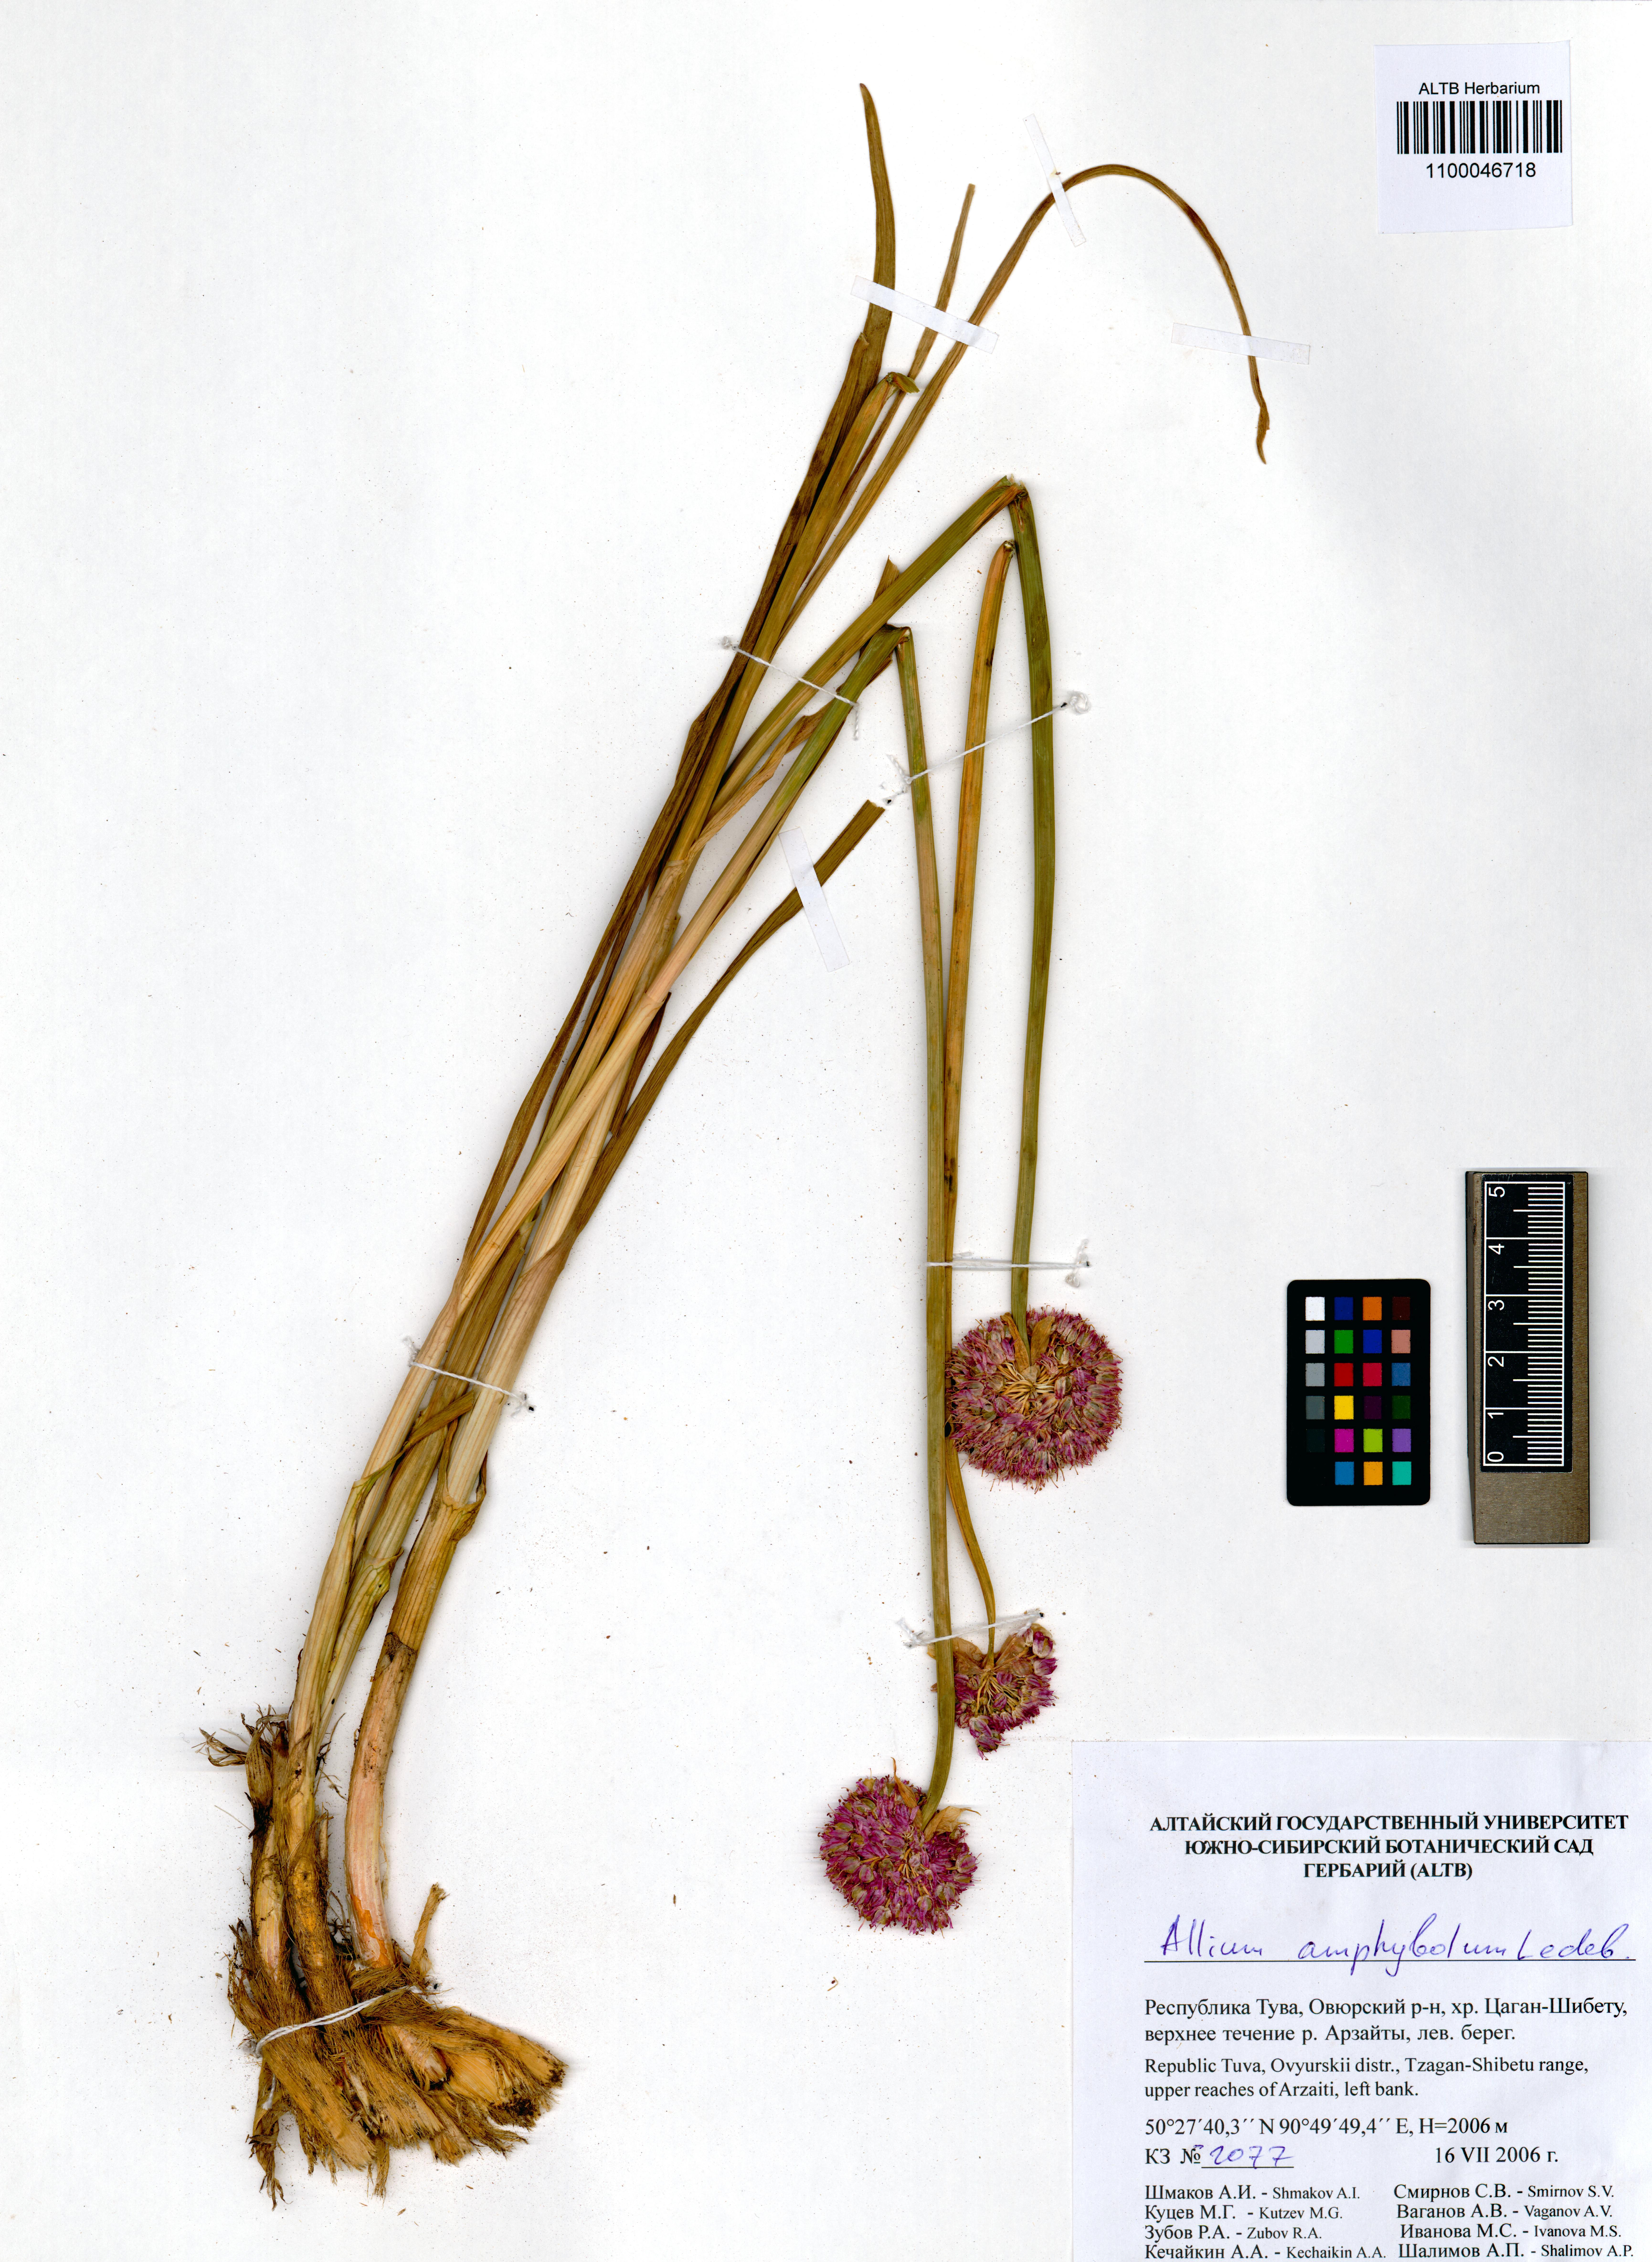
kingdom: Plantae
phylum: Tracheophyta
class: Liliopsida
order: Asparagales
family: Amaryllidaceae
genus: Allium
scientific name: Allium amphibolum
